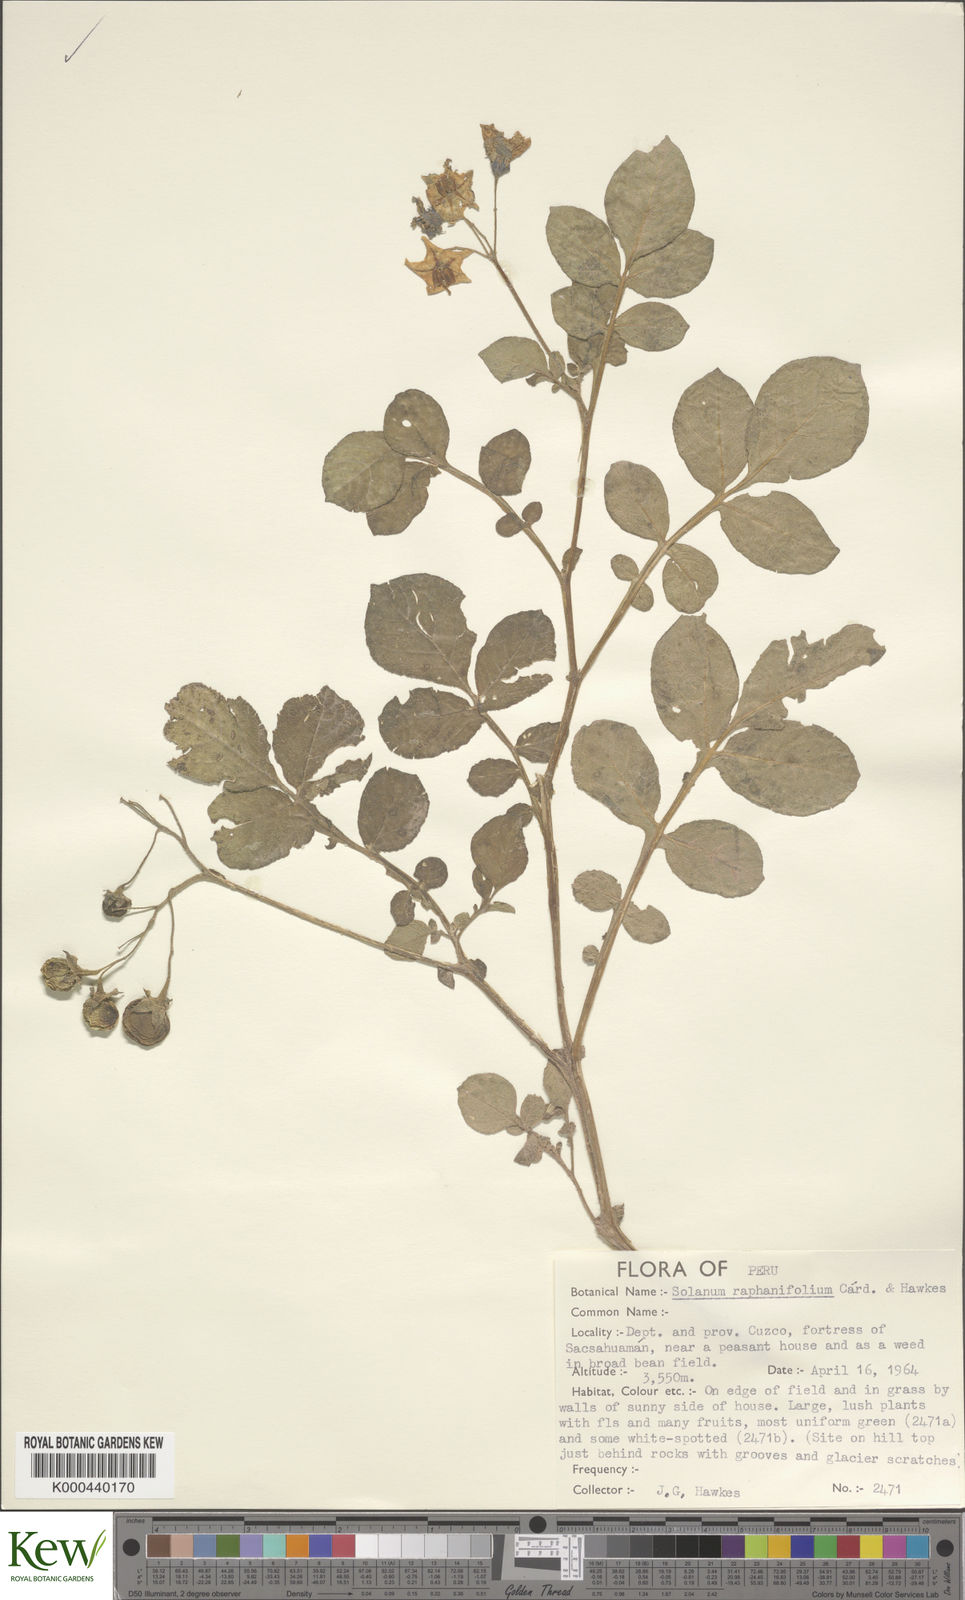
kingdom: Plantae
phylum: Tracheophyta
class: Magnoliopsida
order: Solanales
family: Solanaceae
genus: Solanum
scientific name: Solanum raphanifolium
